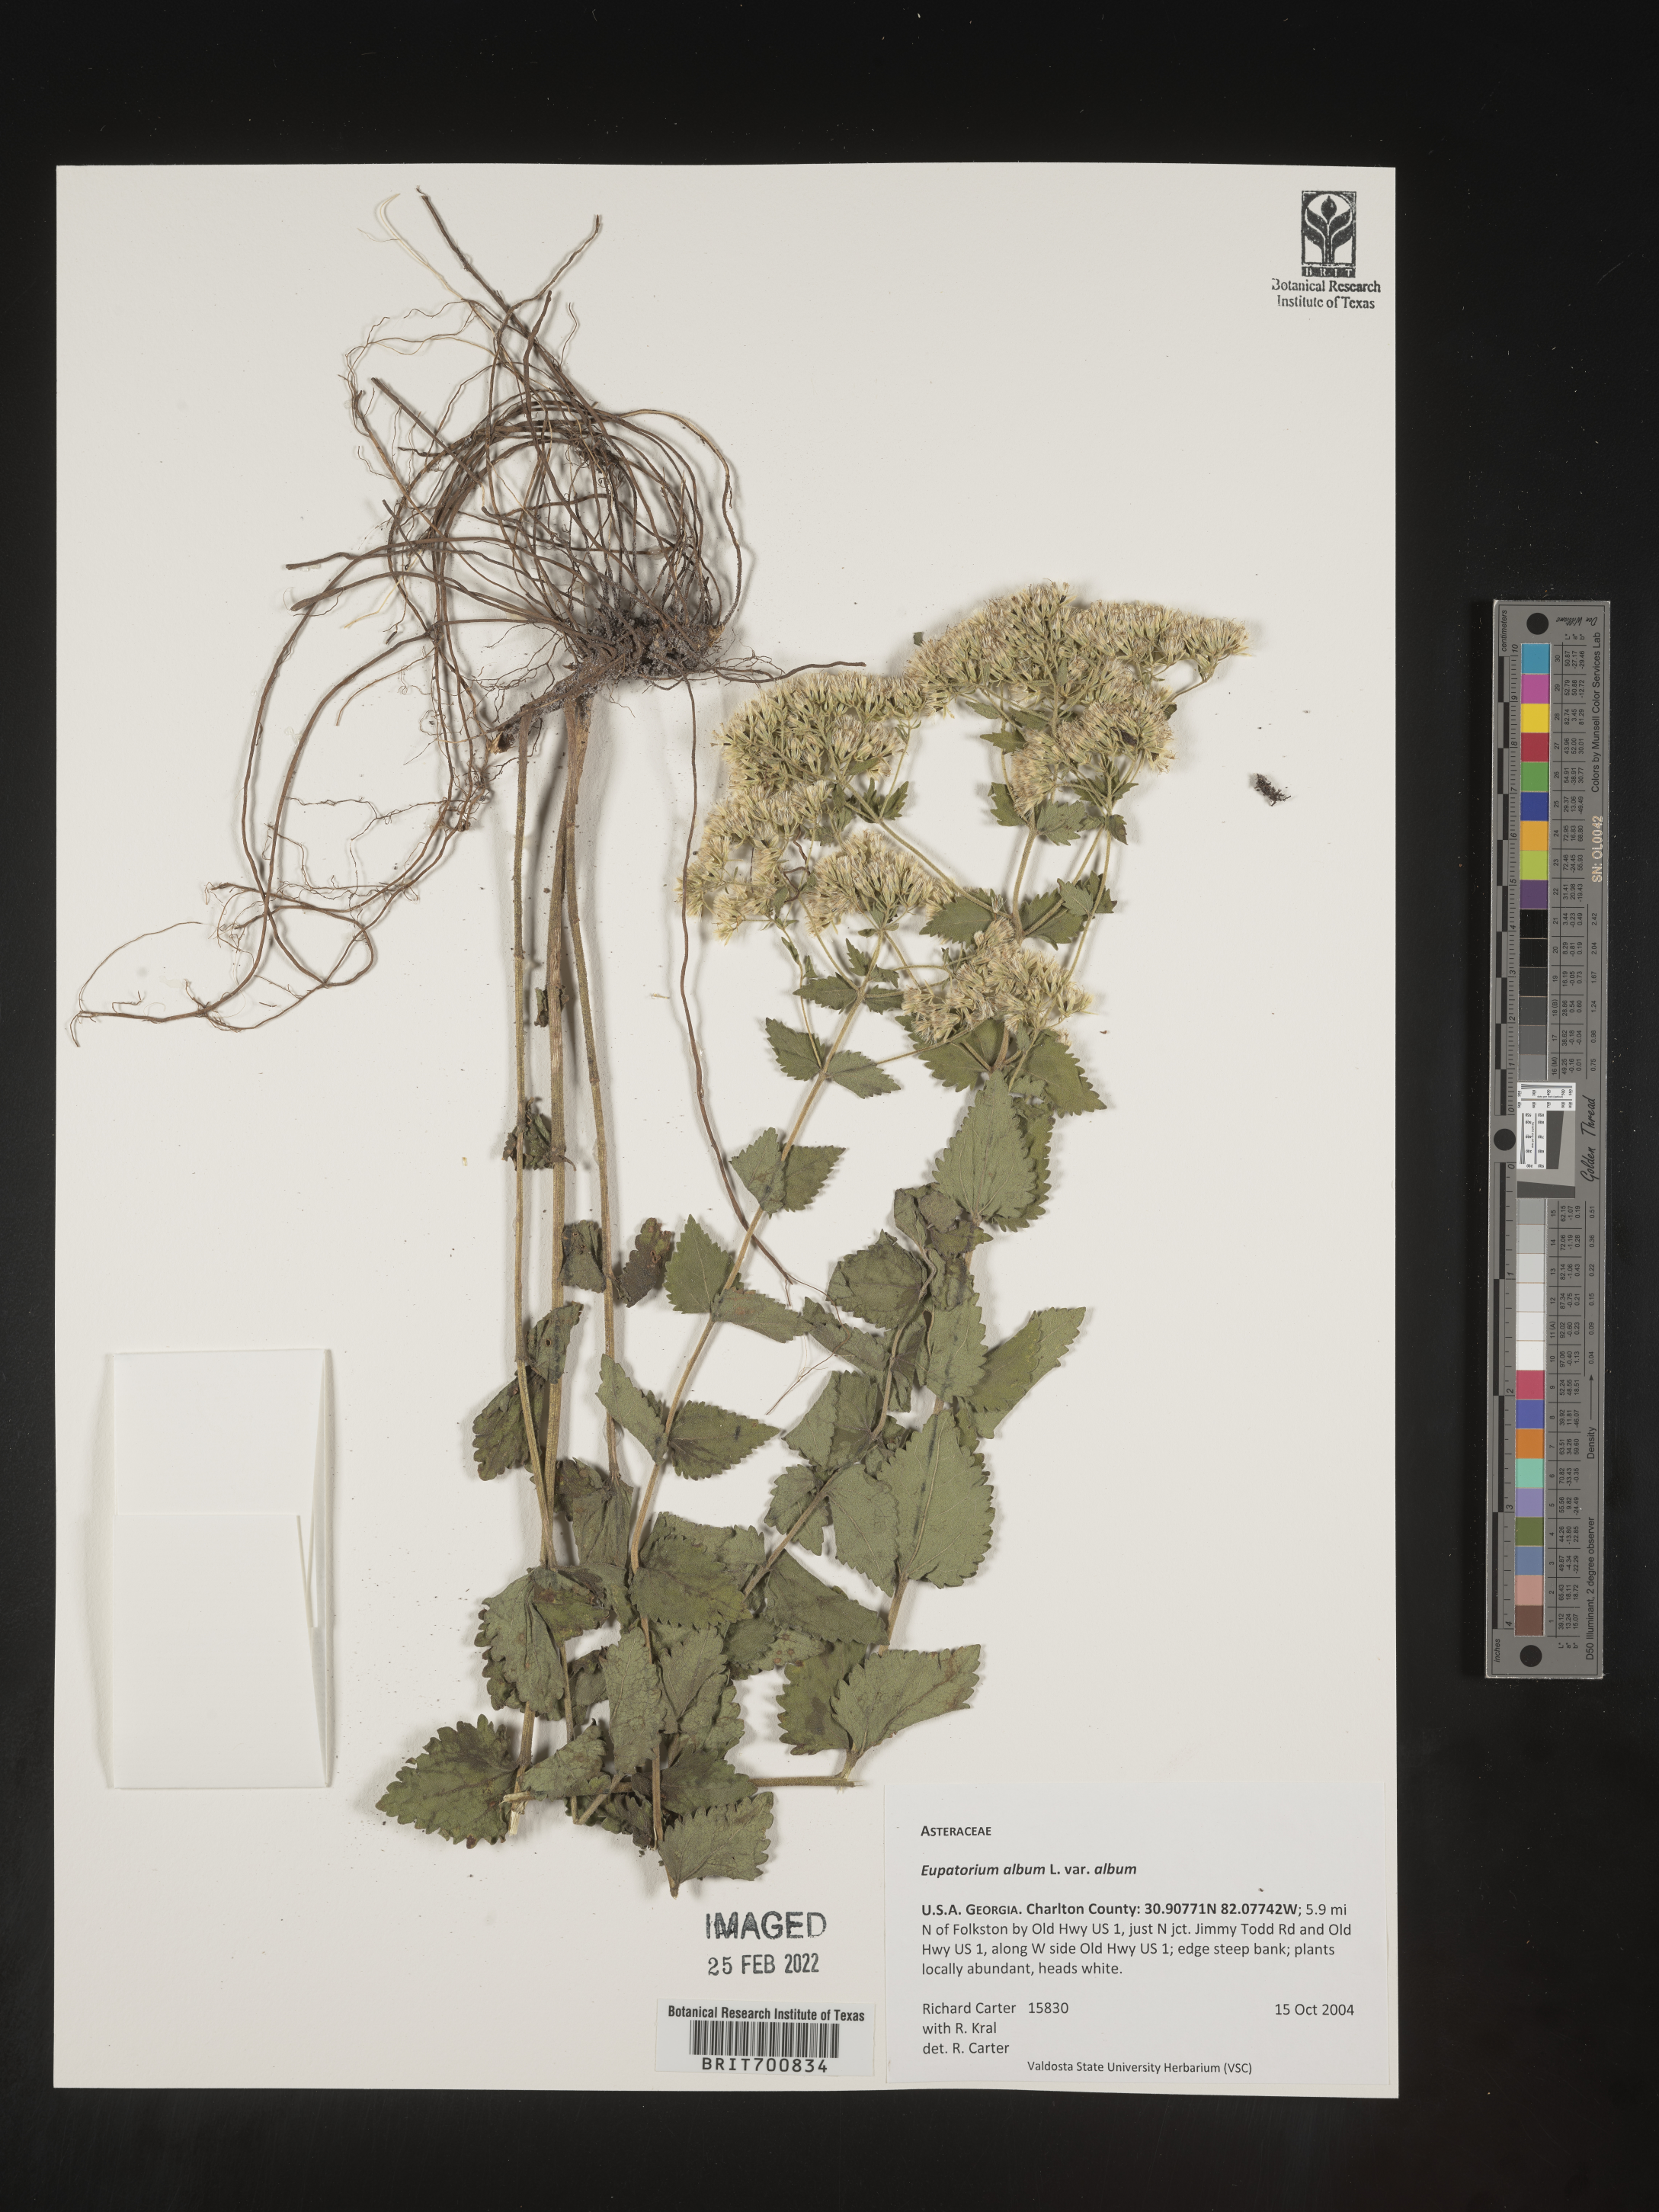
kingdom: Plantae
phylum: Tracheophyta
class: Magnoliopsida
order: Asterales
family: Asteraceae
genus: Eupatorium
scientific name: Eupatorium album
